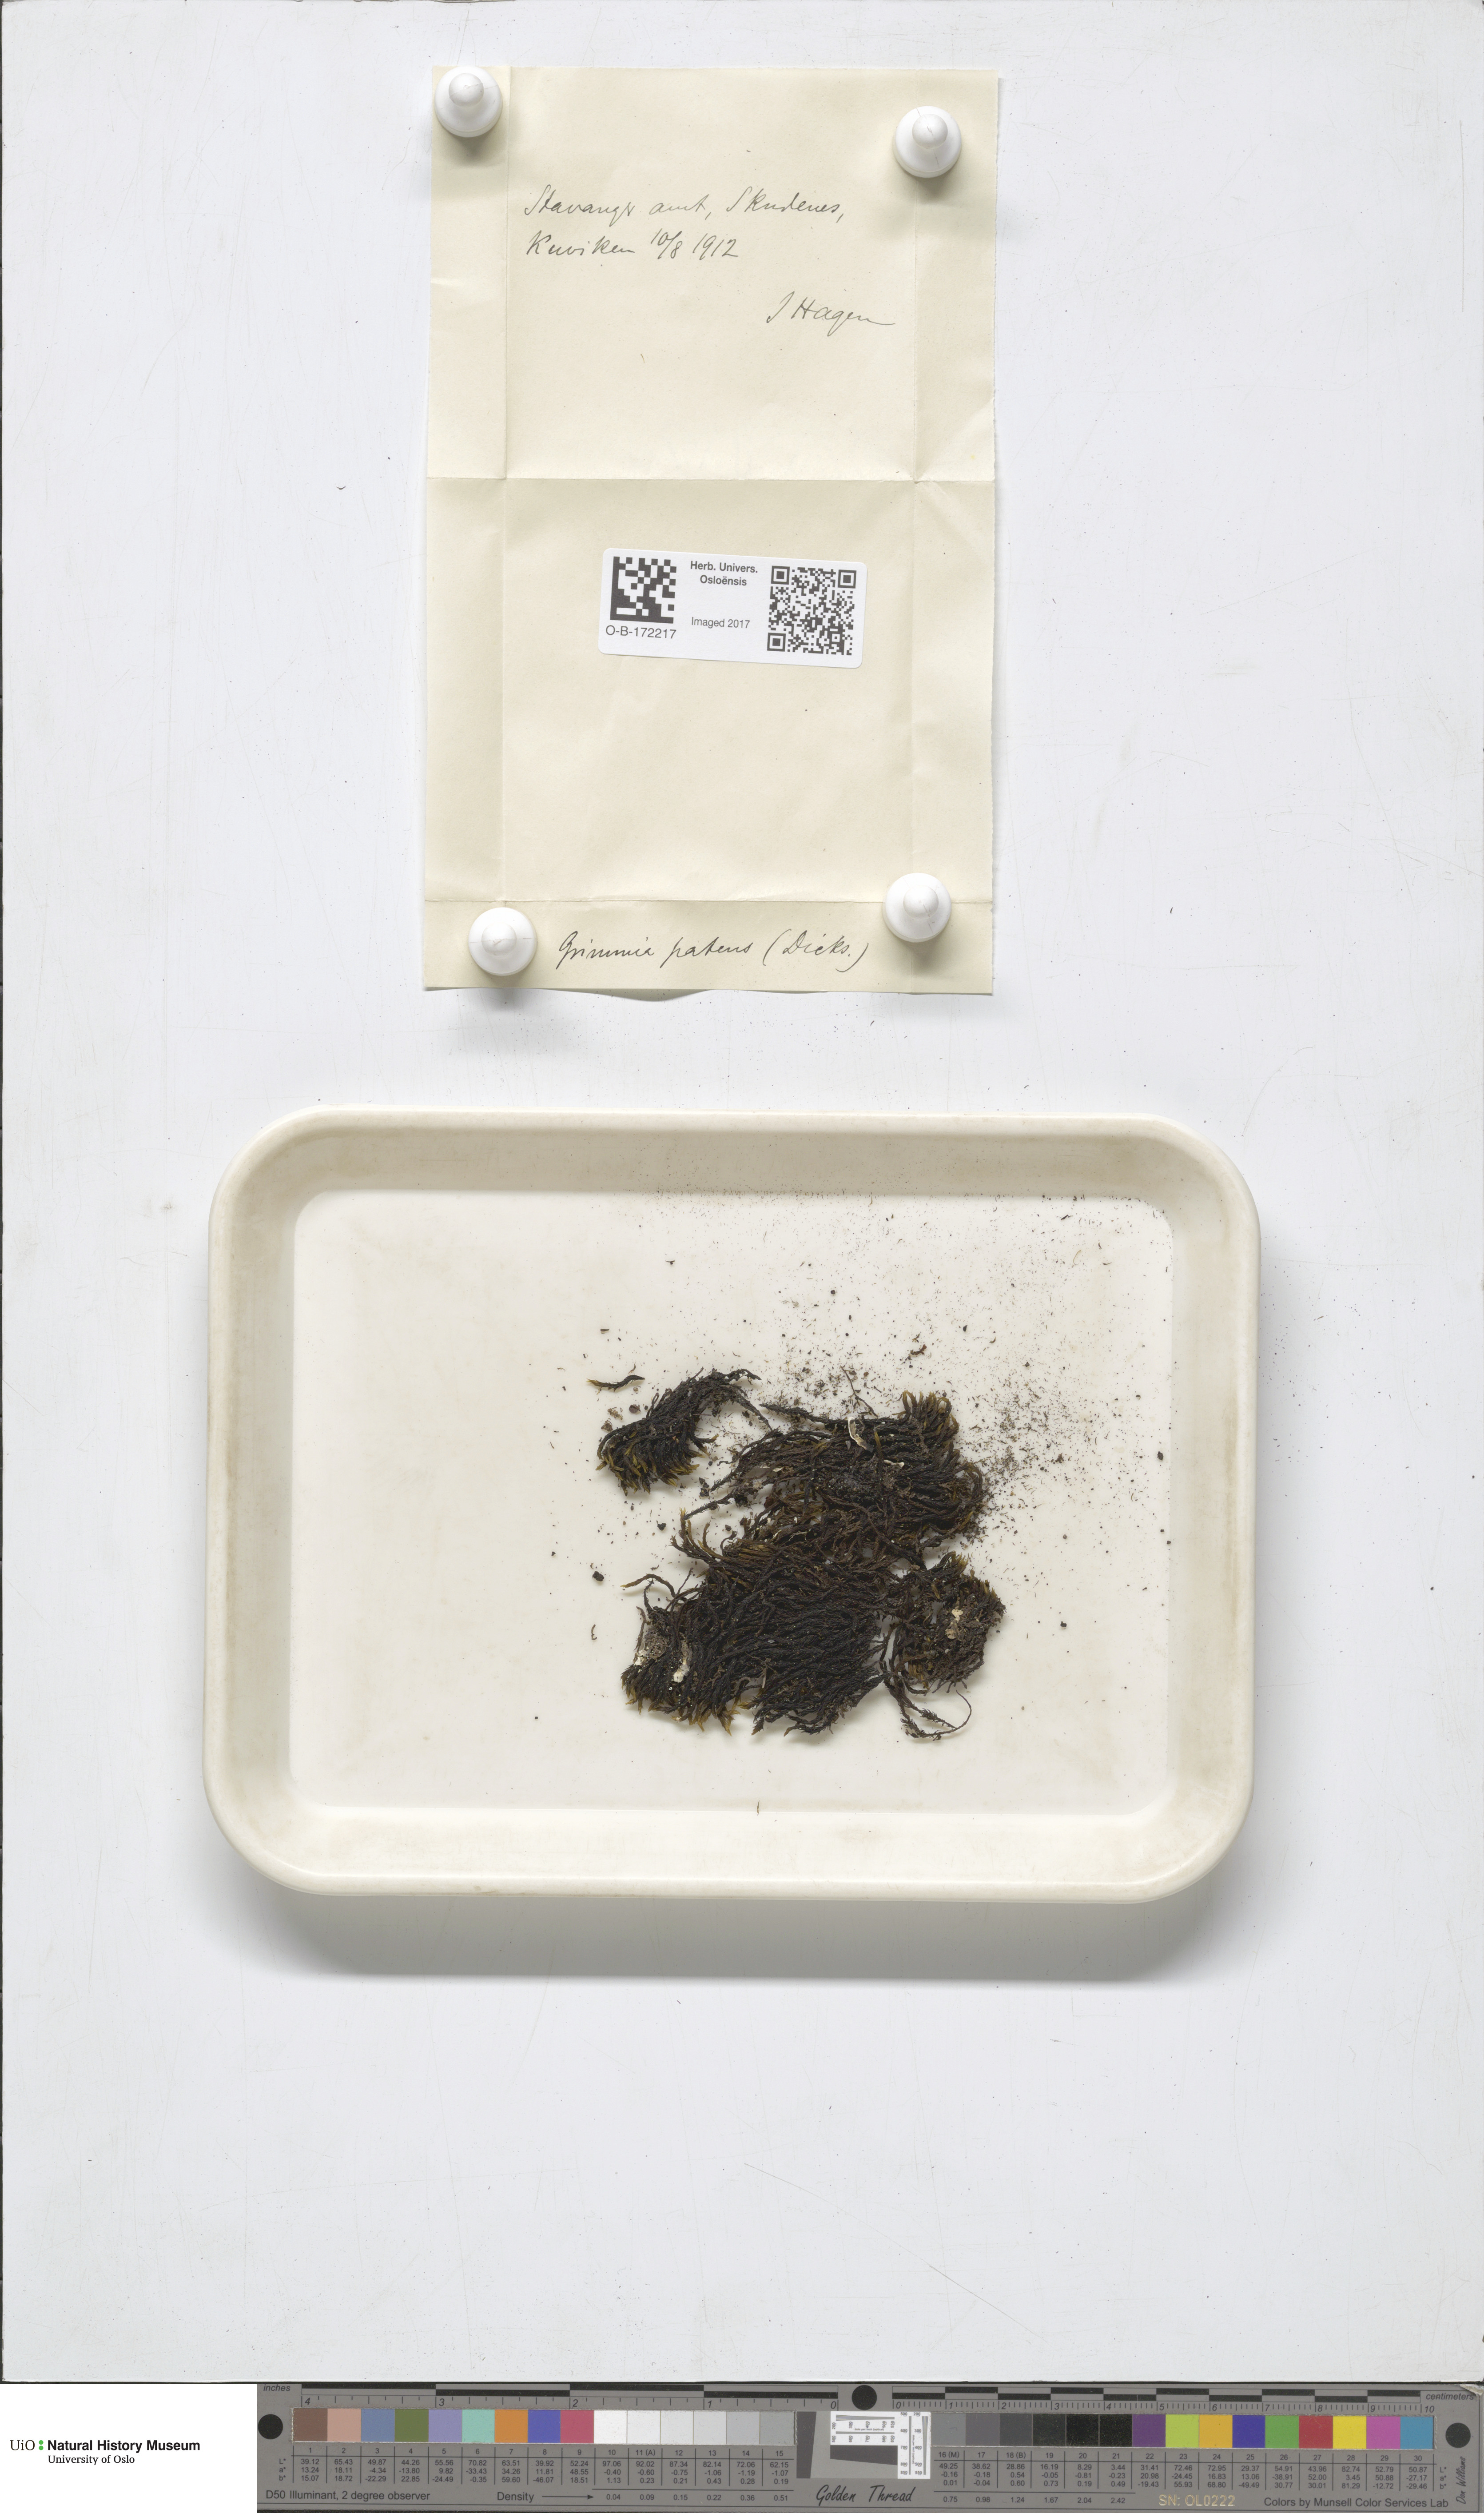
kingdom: Plantae
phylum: Bryophyta
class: Bryopsida
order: Grimmiales
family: Grimmiaceae
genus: Grimmia
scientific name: Grimmia ramondii
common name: Spreading-leaved grimmia
